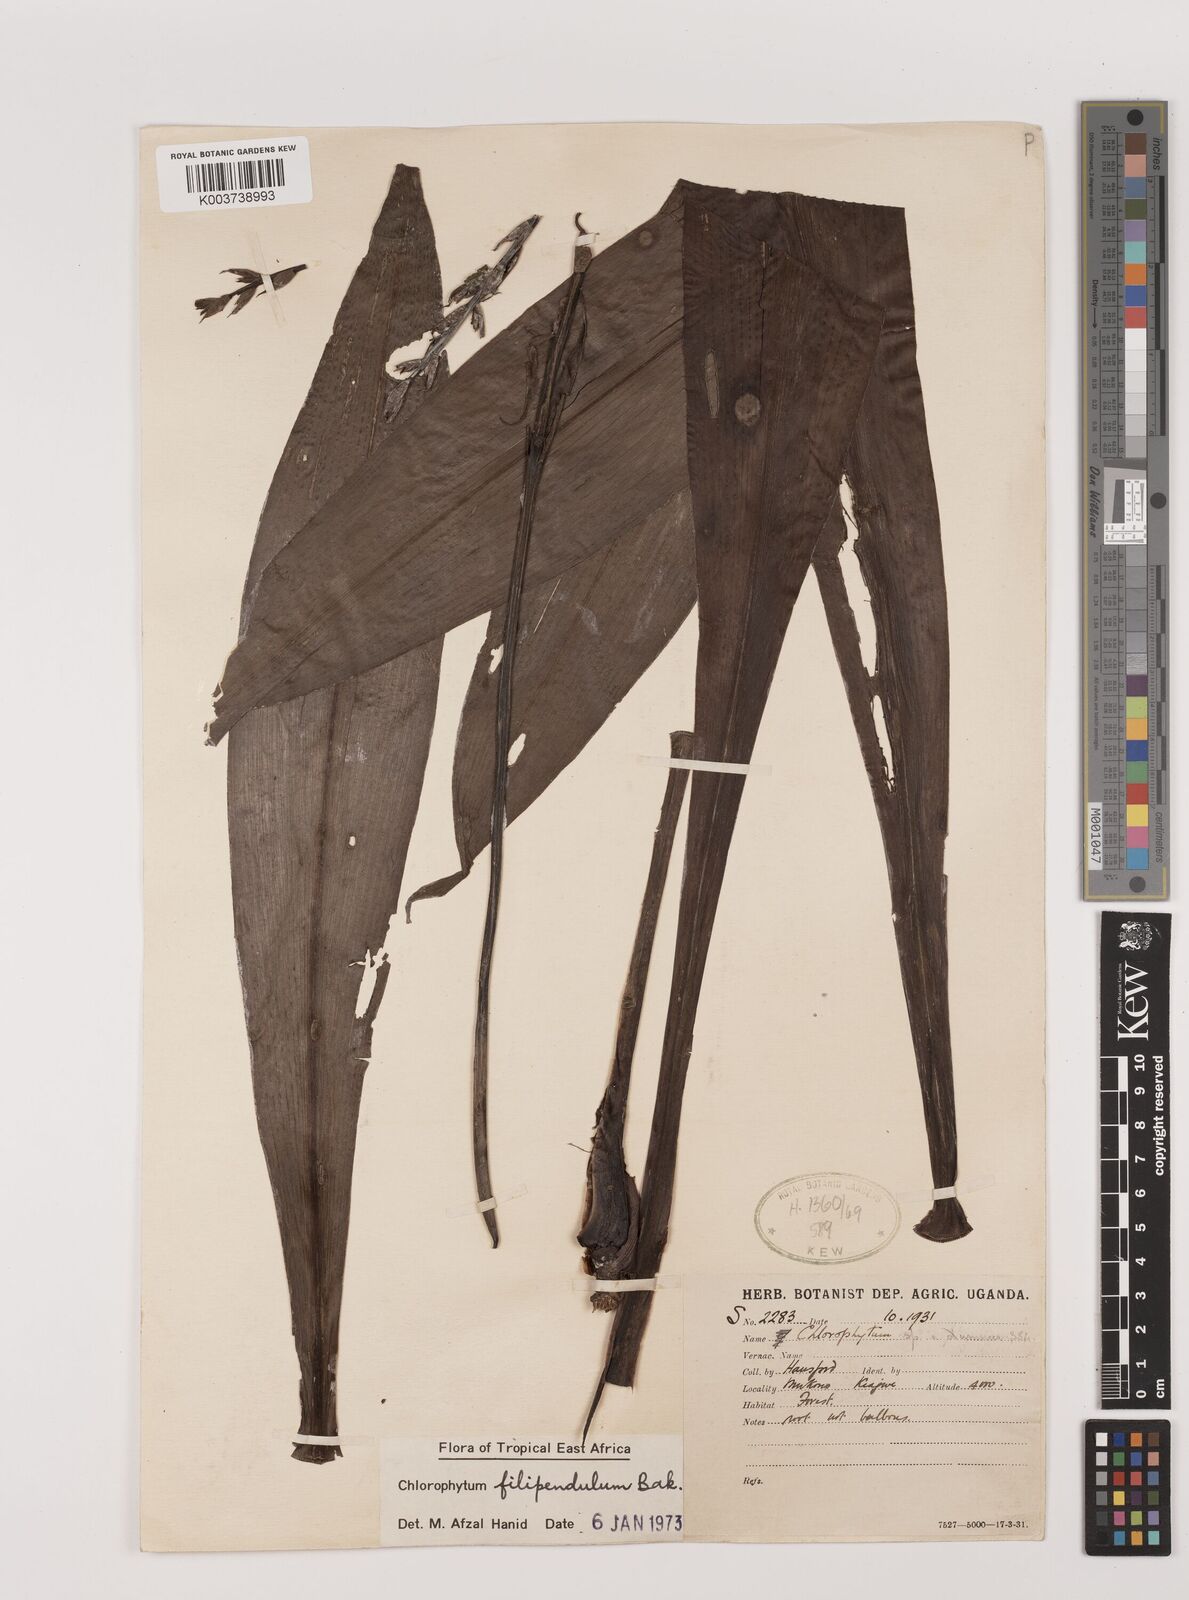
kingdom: Plantae
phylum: Tracheophyta
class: Liliopsida
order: Asparagales
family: Asparagaceae
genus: Chlorophytum
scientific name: Chlorophytum filipendulum
